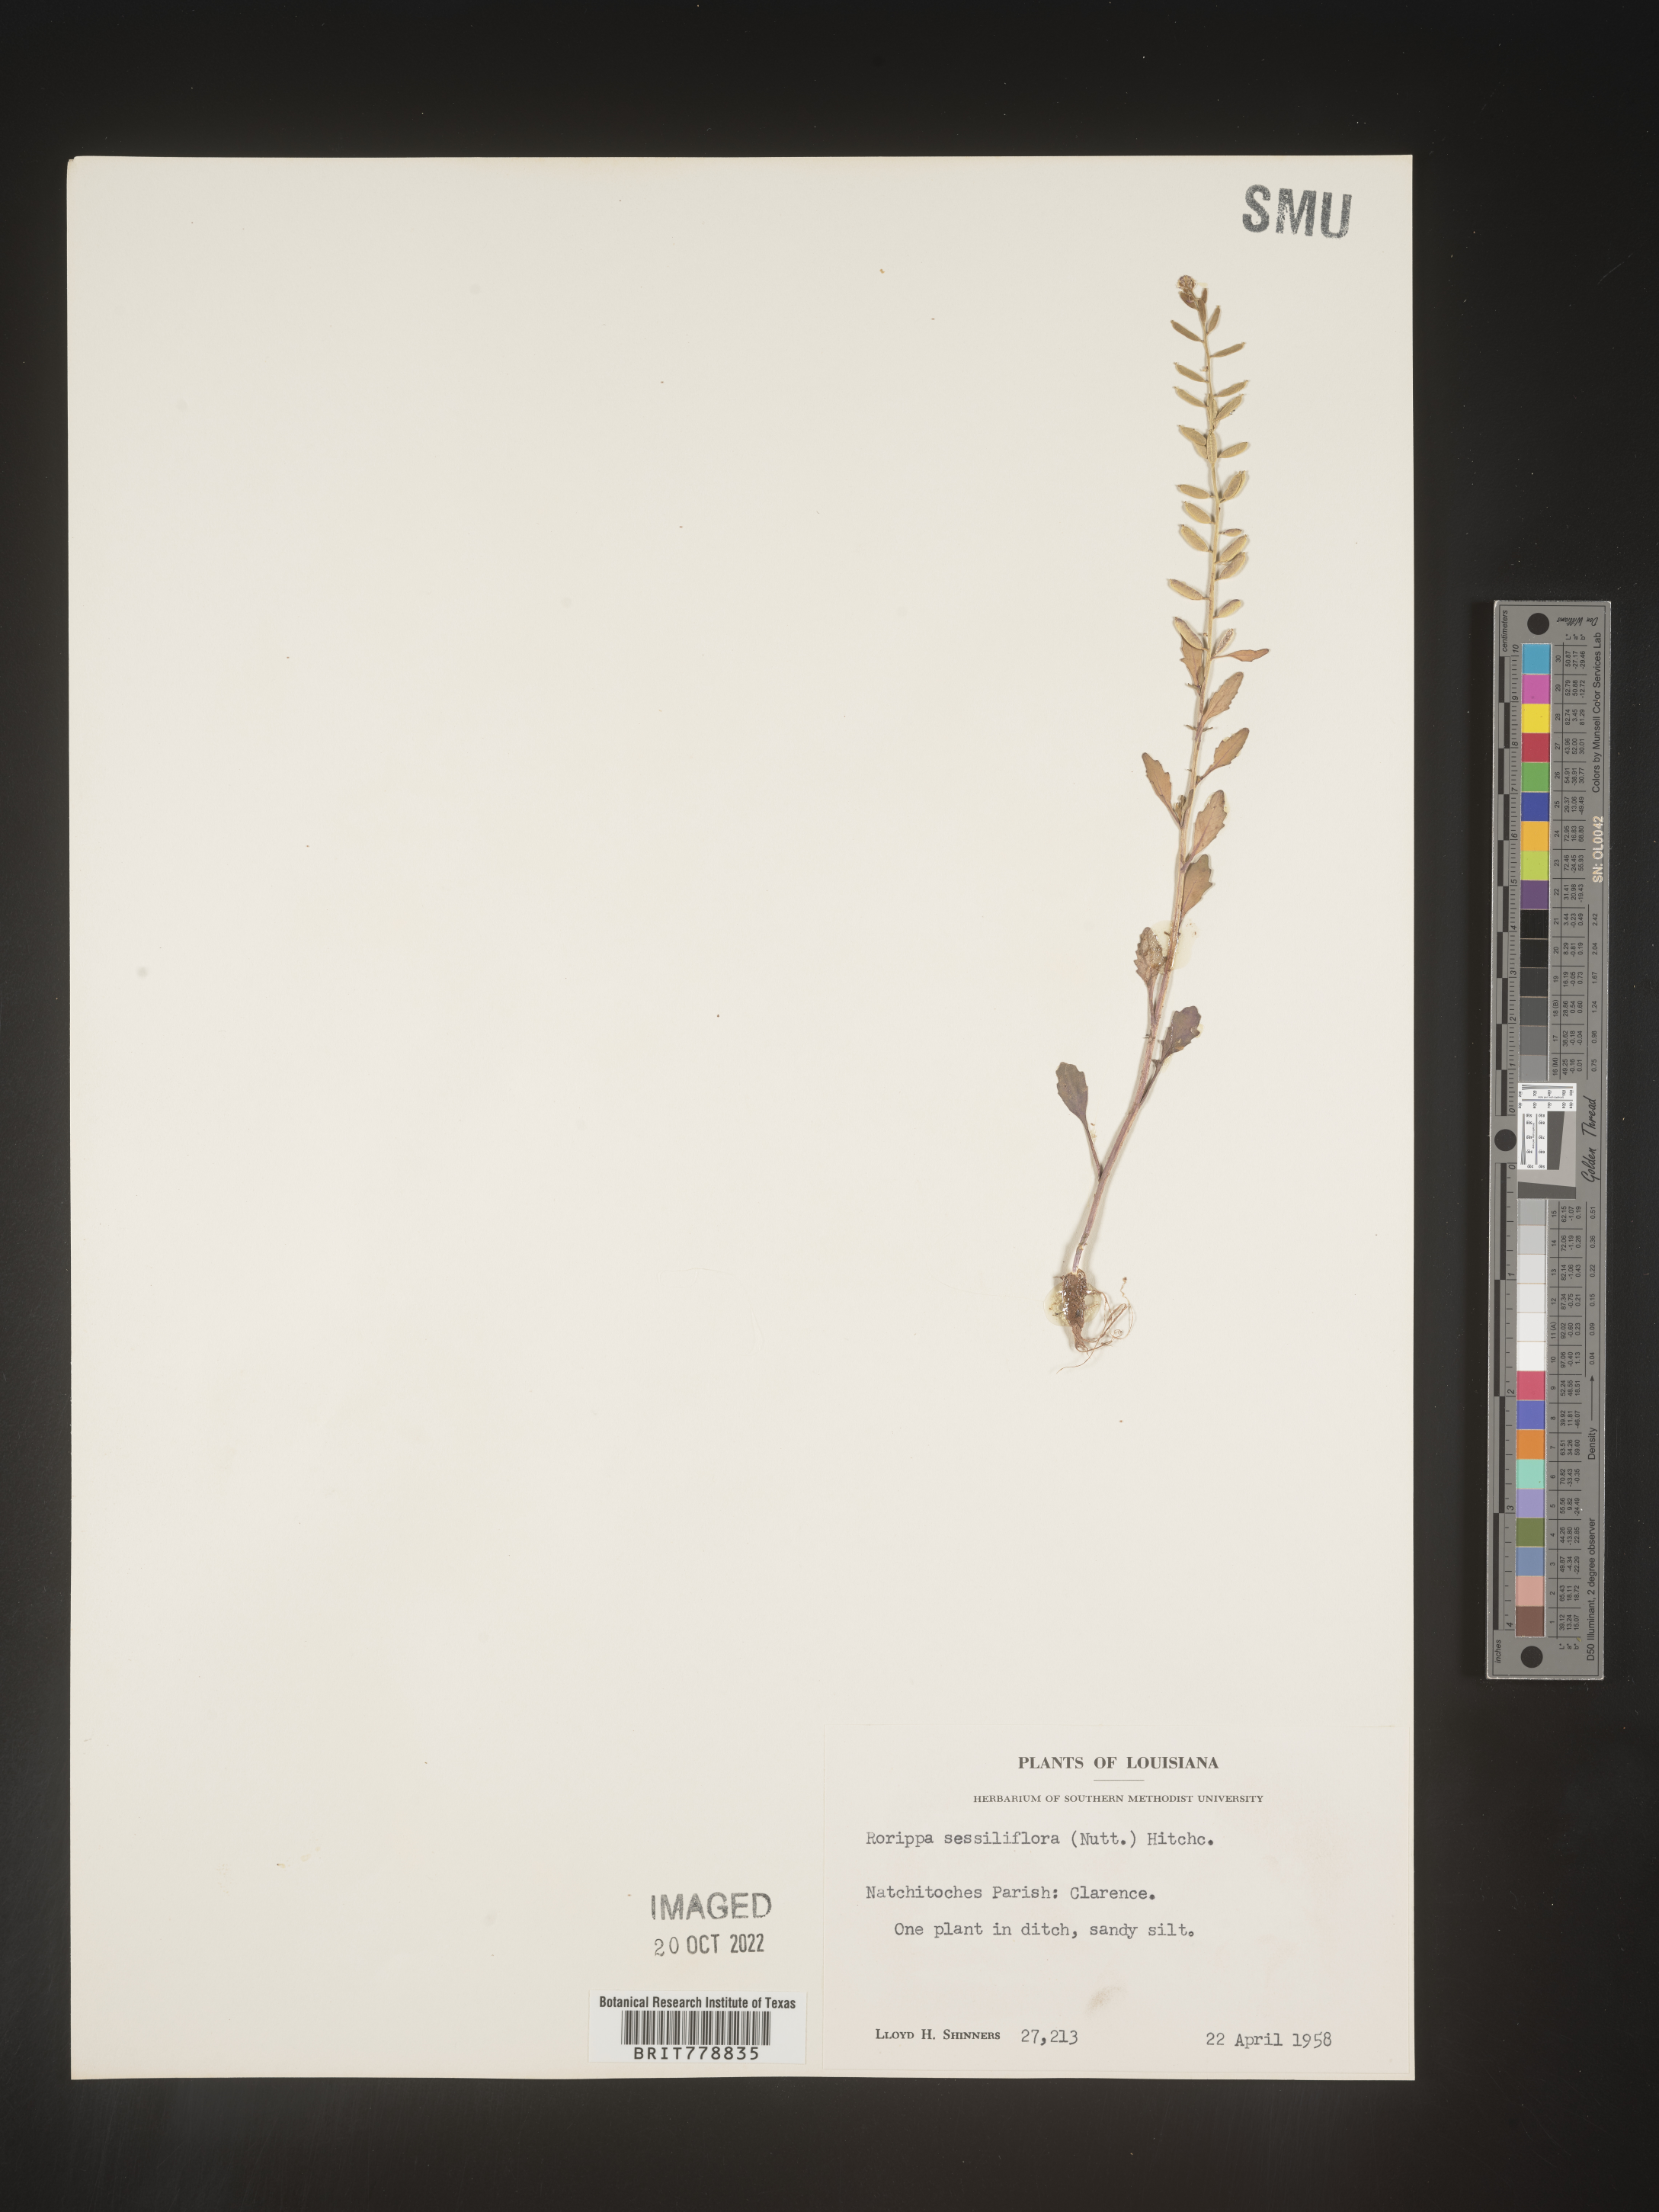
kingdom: Plantae
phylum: Tracheophyta
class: Magnoliopsida
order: Brassicales
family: Brassicaceae
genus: Rorippa
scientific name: Rorippa sessiliflora
